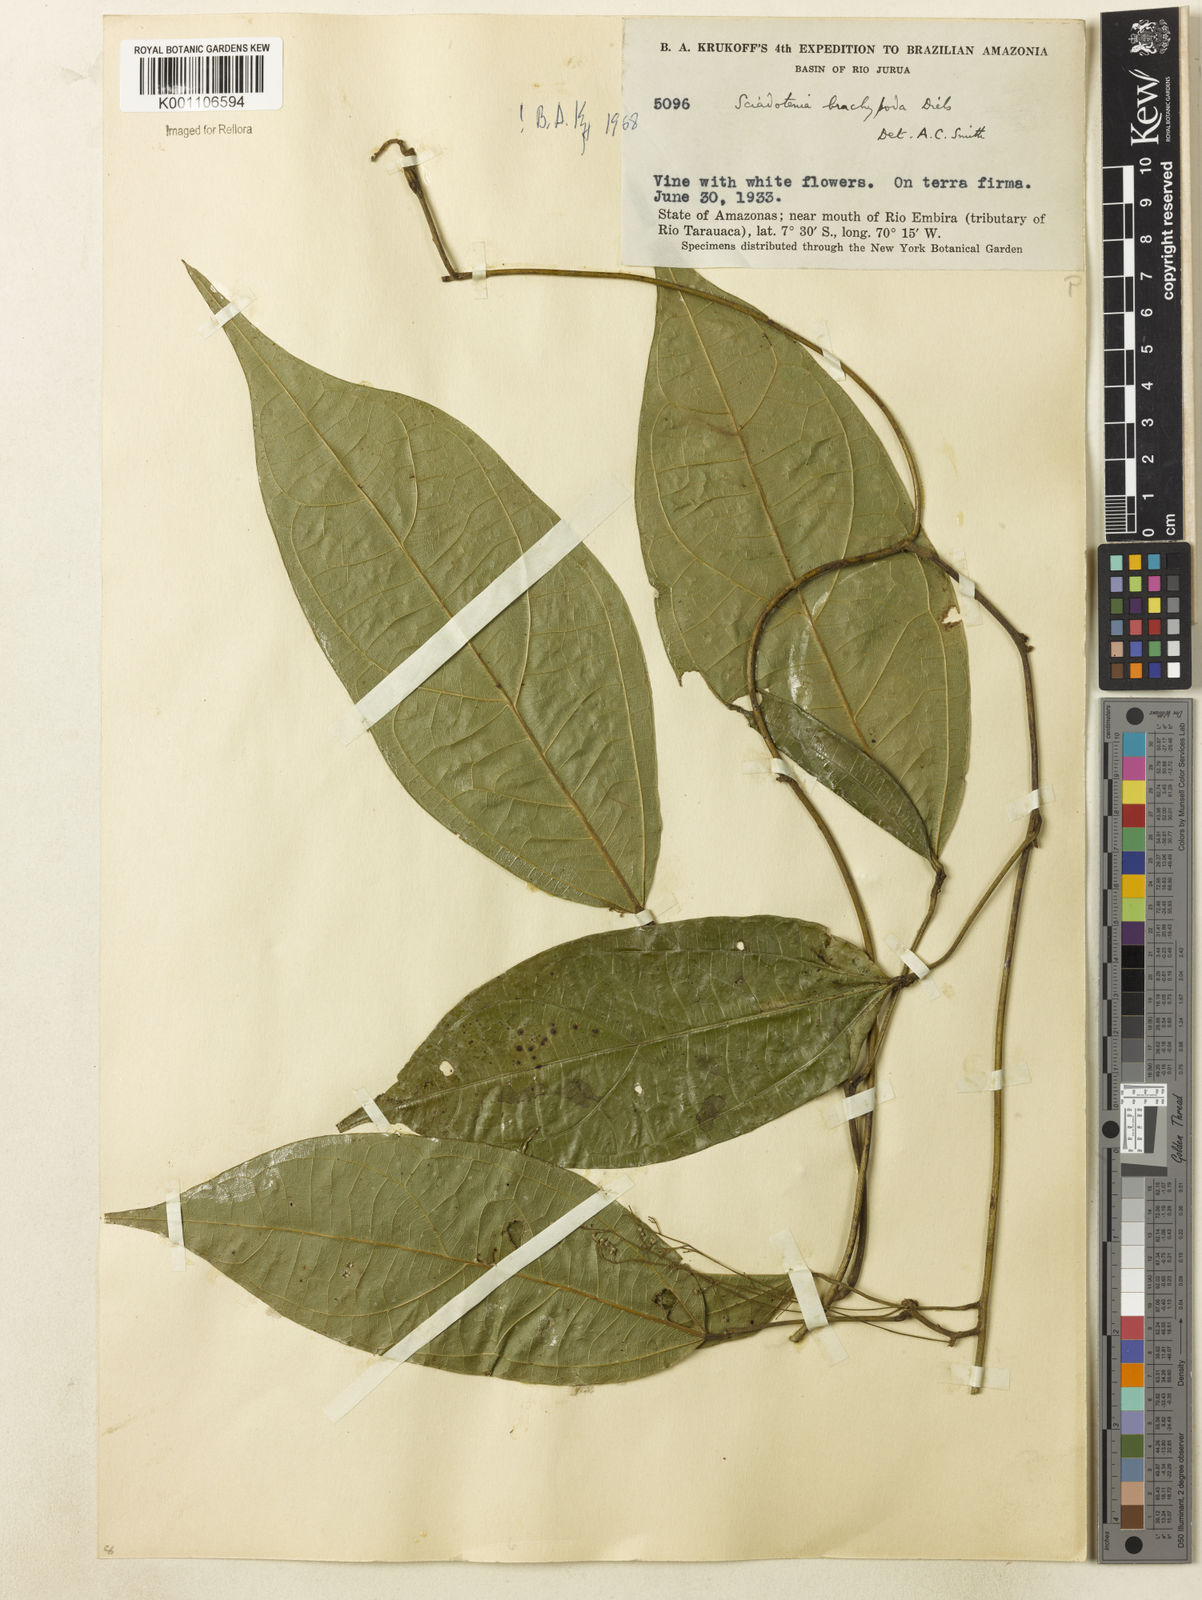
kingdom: Plantae
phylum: Tracheophyta
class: Magnoliopsida
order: Ranunculales
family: Menispermaceae
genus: Sciadotenia
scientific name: Sciadotenia brachypoda
